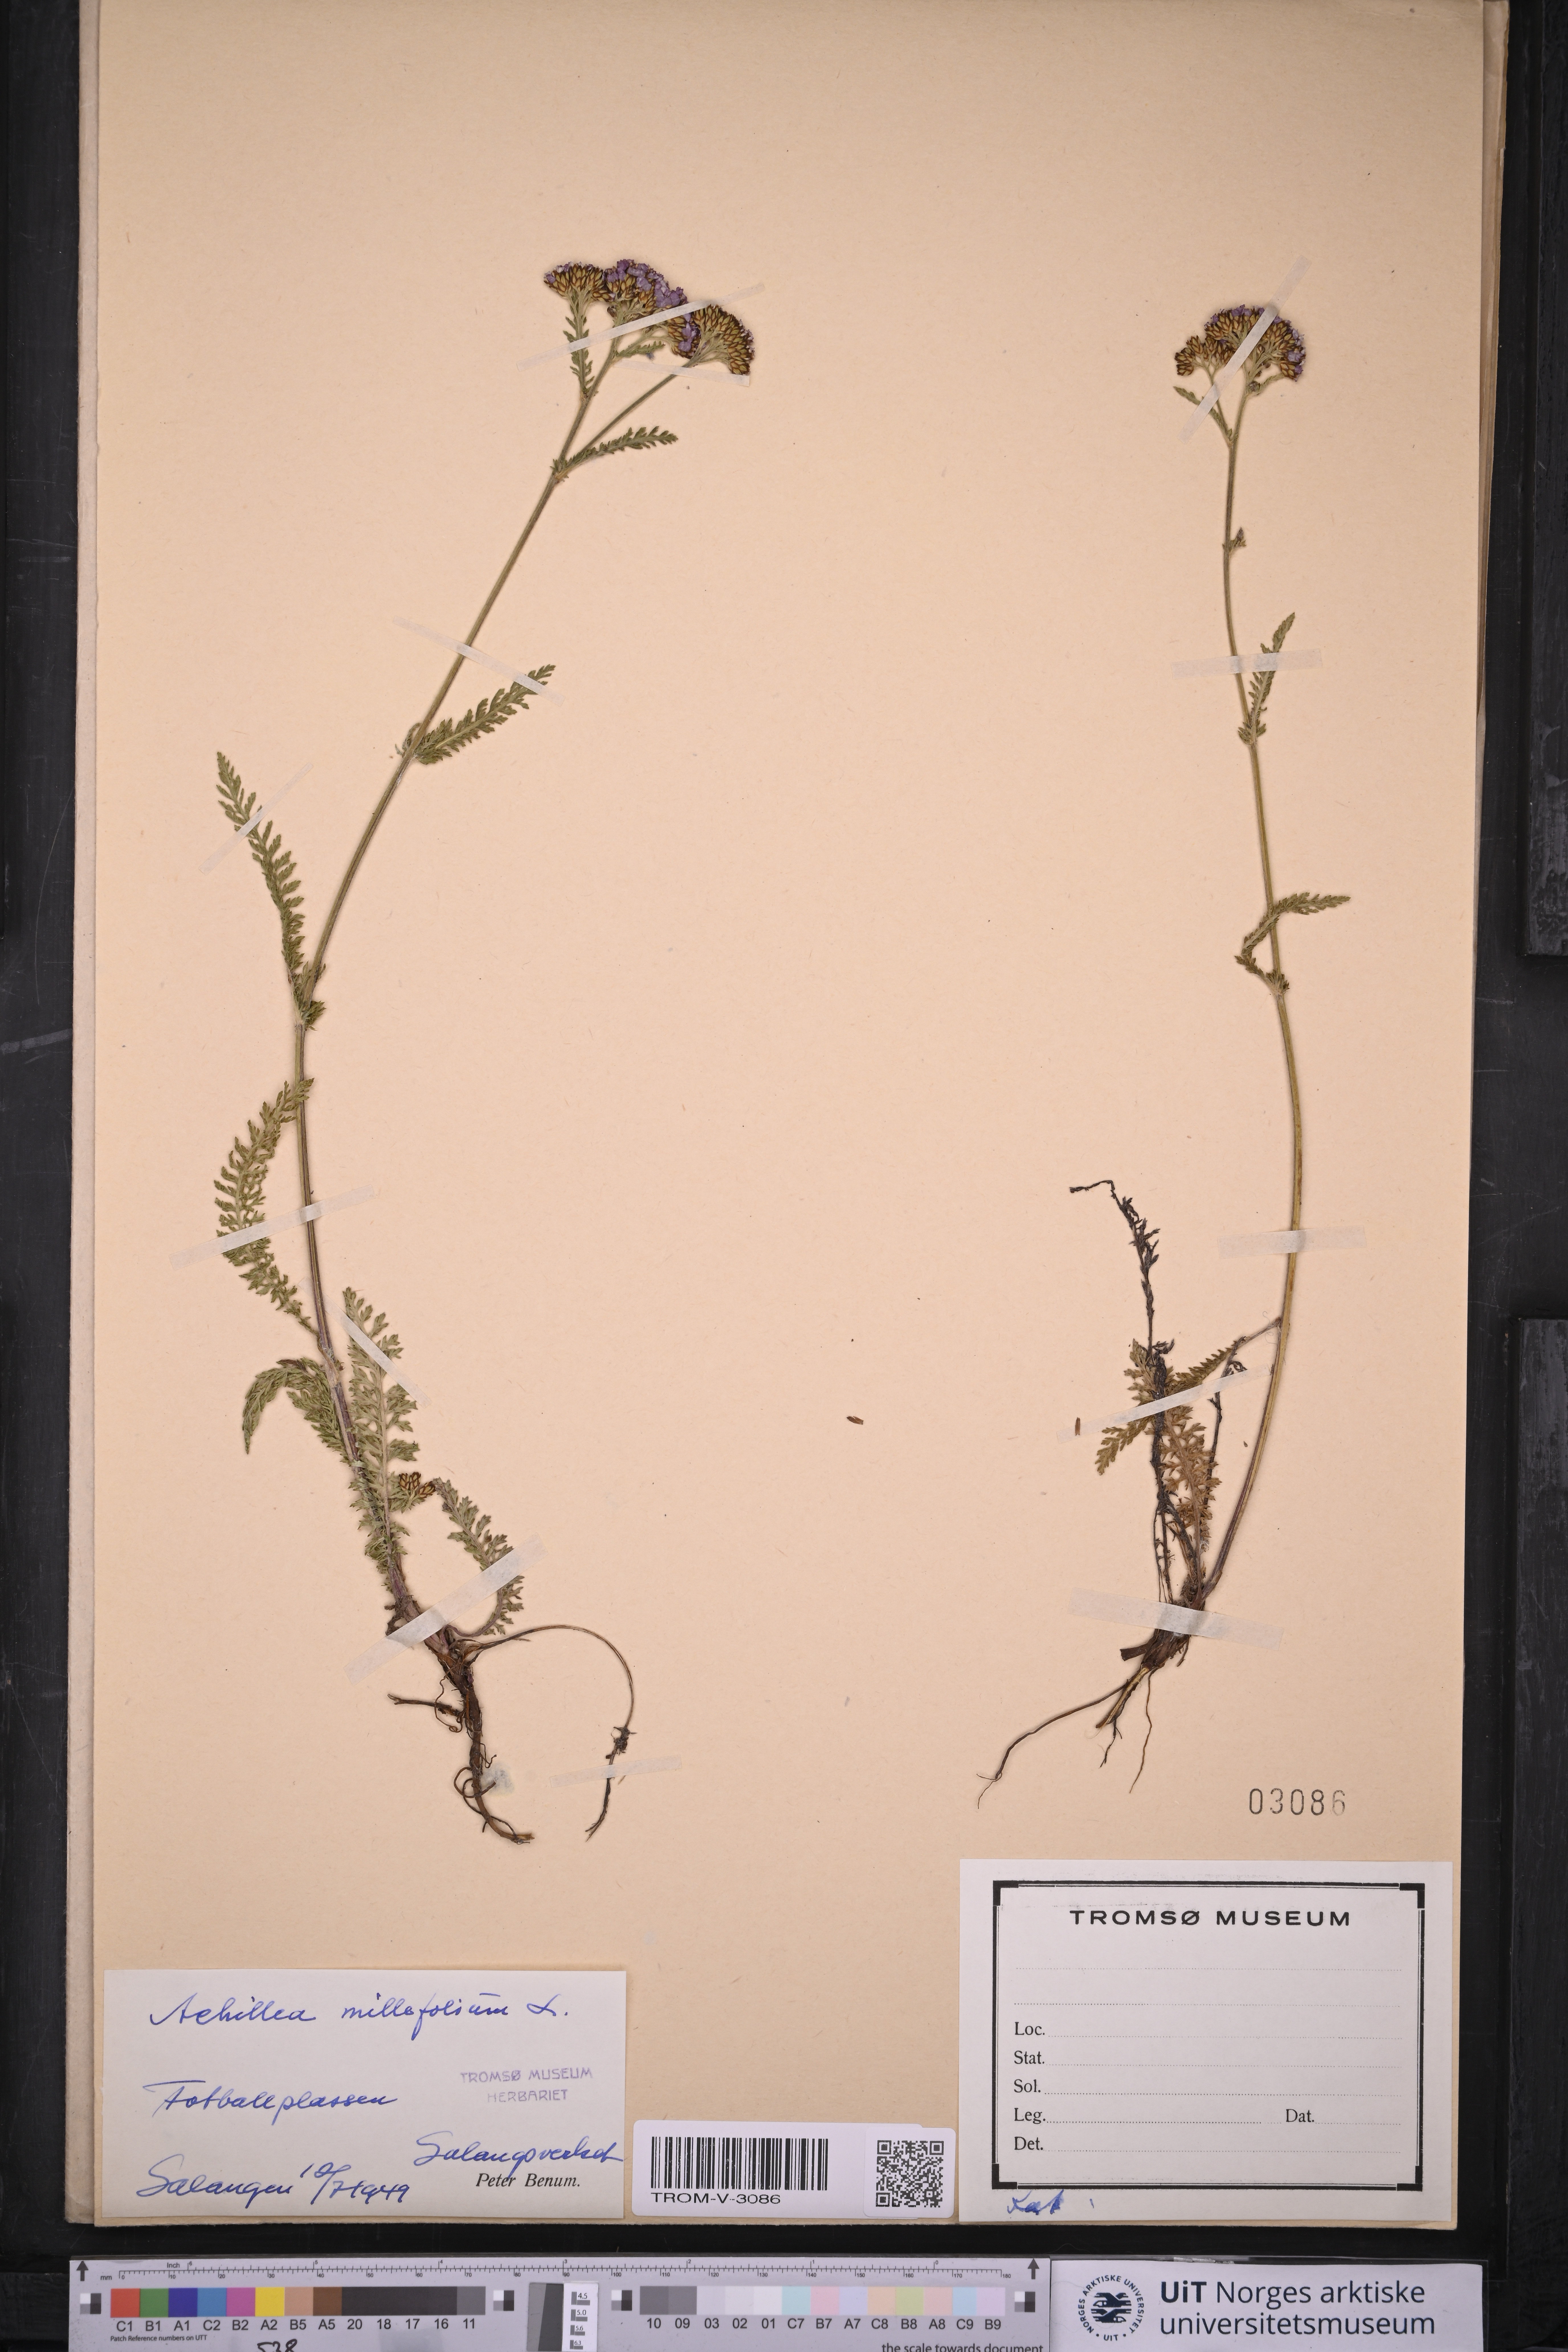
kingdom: Plantae
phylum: Tracheophyta
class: Magnoliopsida
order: Asterales
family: Asteraceae
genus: Achillea
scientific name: Achillea millefolium
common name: Yarrow
